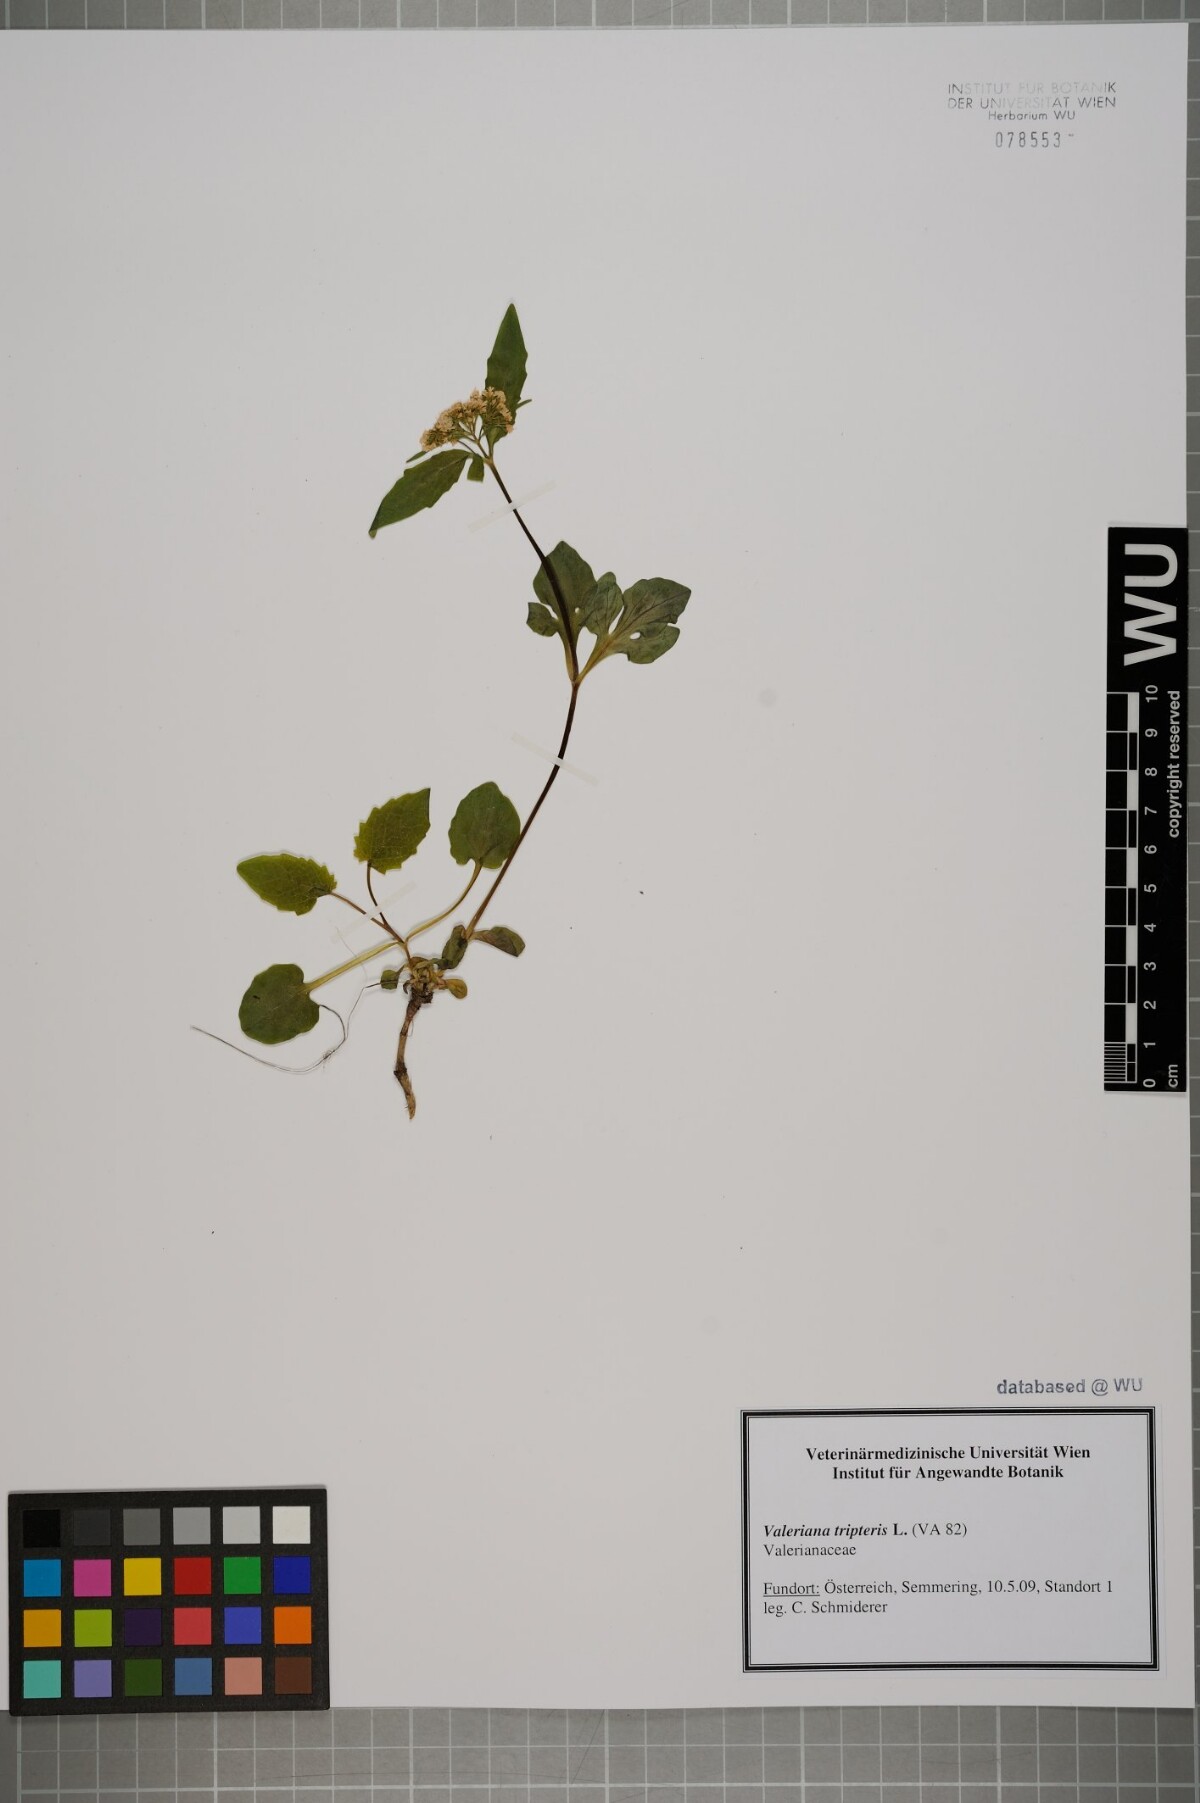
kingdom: Plantae
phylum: Tracheophyta
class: Magnoliopsida
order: Dipsacales
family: Caprifoliaceae
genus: Valeriana
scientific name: Valeriana tripteris
